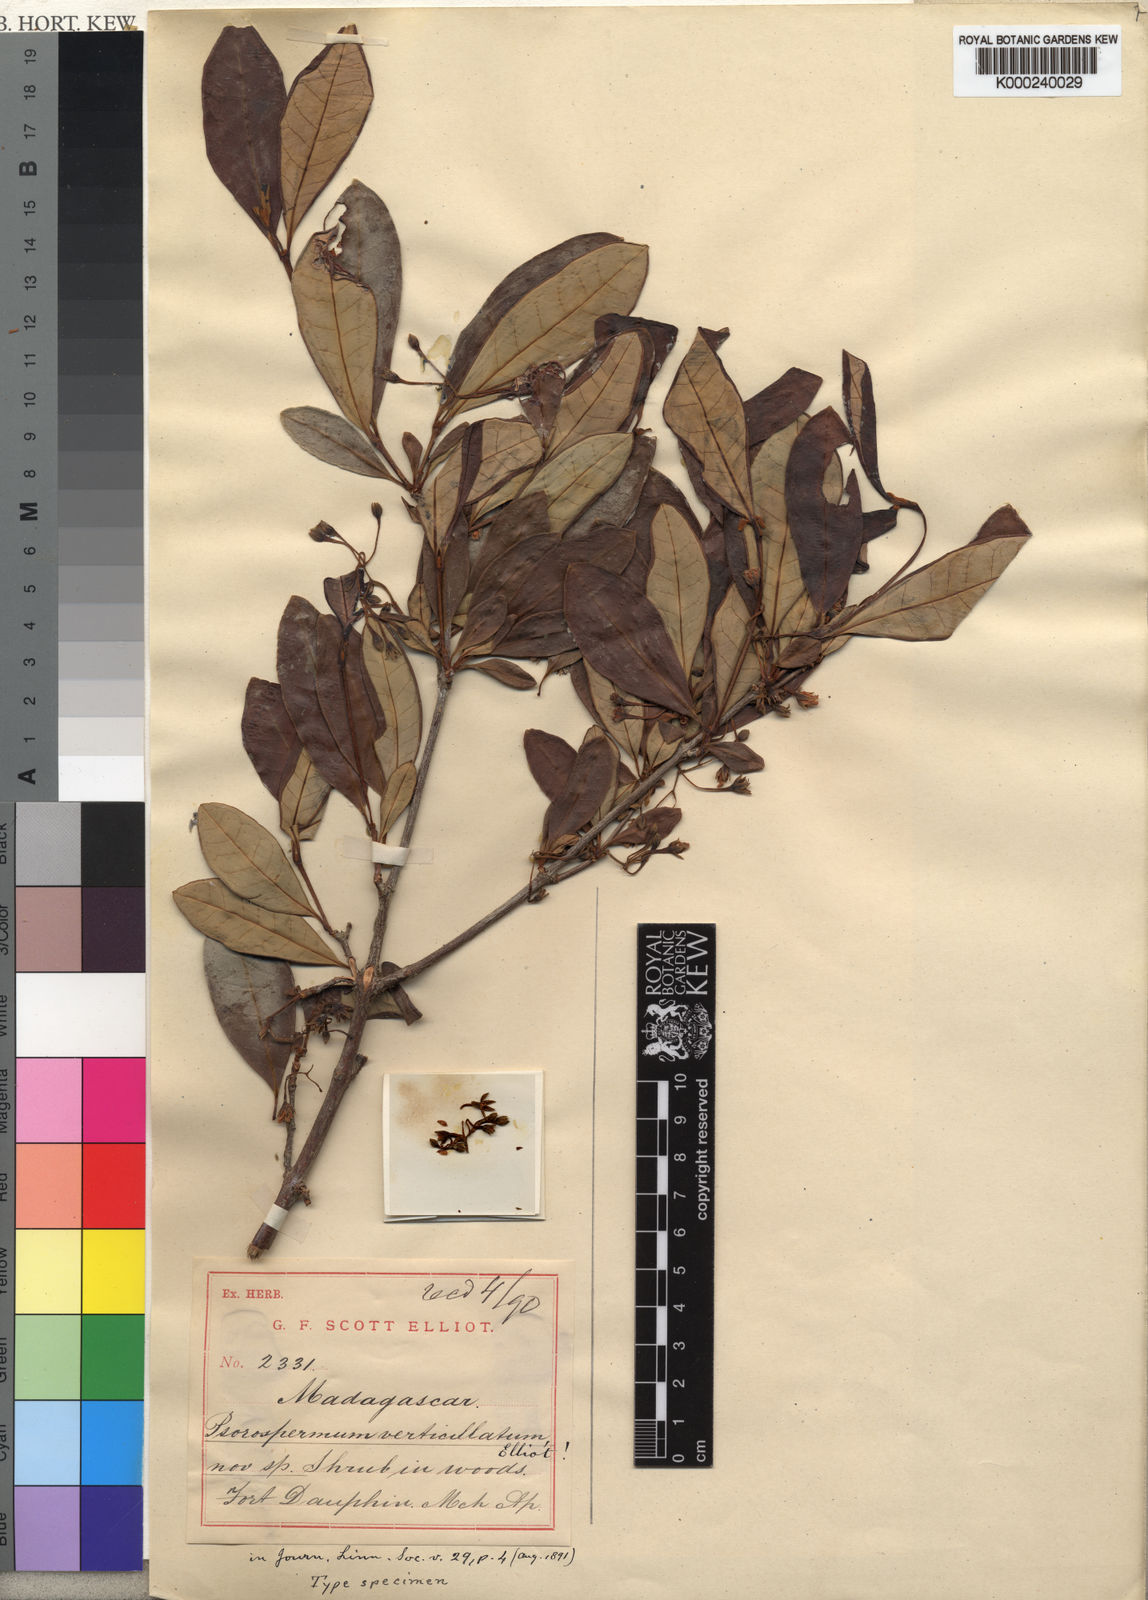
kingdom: Plantae
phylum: Tracheophyta
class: Magnoliopsida
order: Malpighiales
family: Hypericaceae
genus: Psorospermum
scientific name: Psorospermum revolutum
